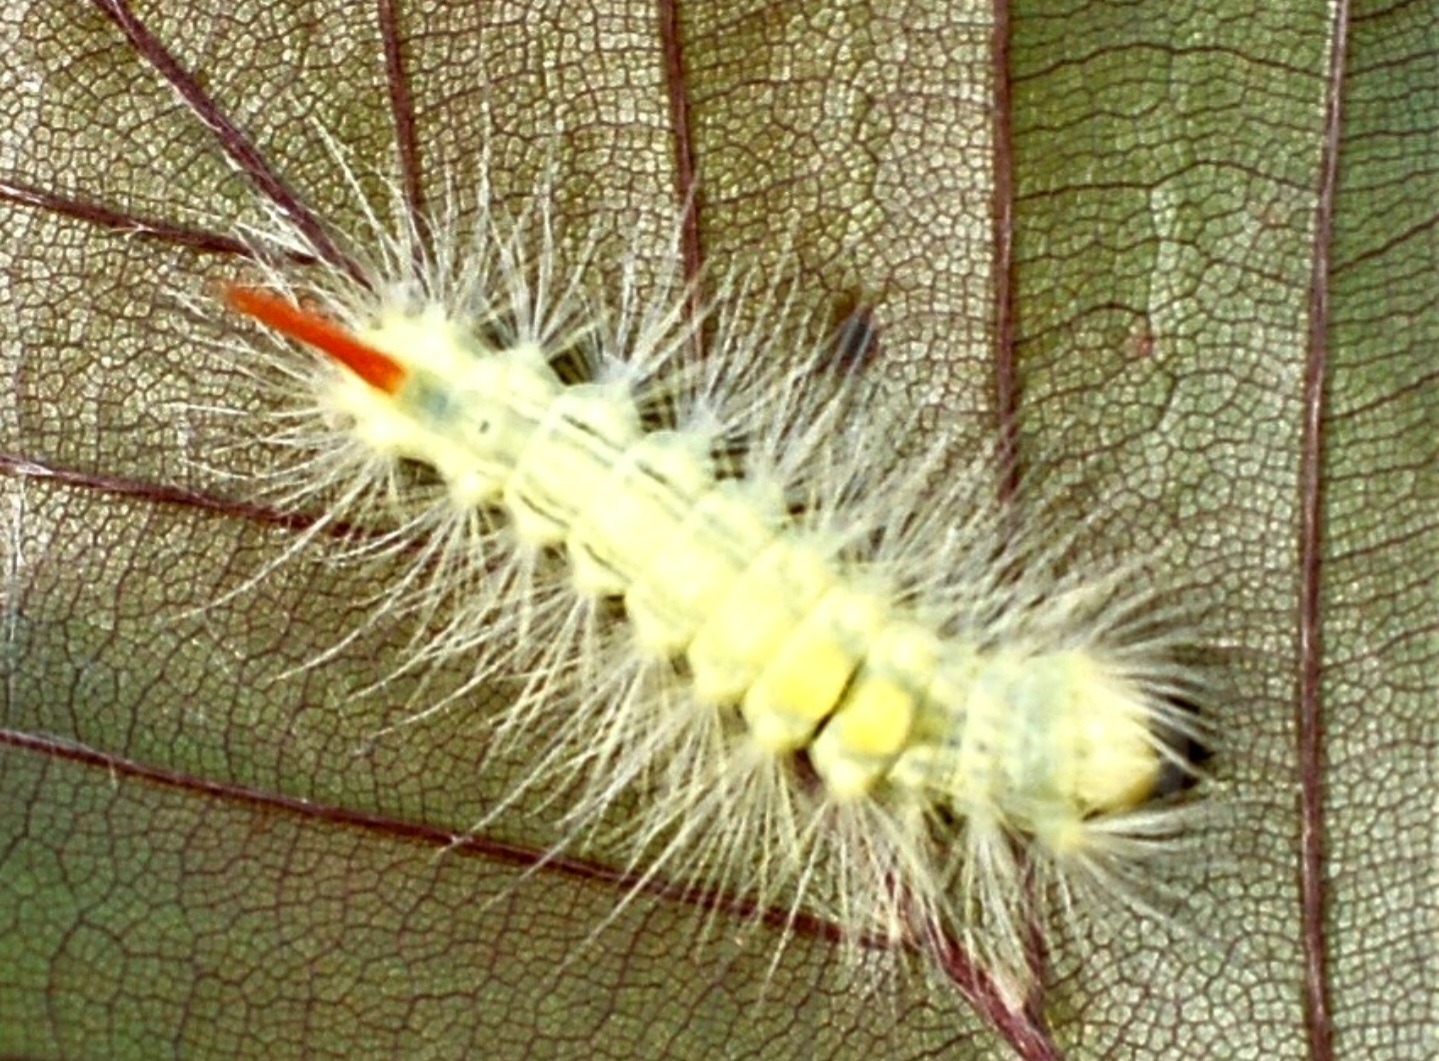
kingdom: Animalia
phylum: Arthropoda
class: Insecta
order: Lepidoptera
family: Erebidae
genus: Calliteara
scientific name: Calliteara pudibunda
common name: Bøgenonne
